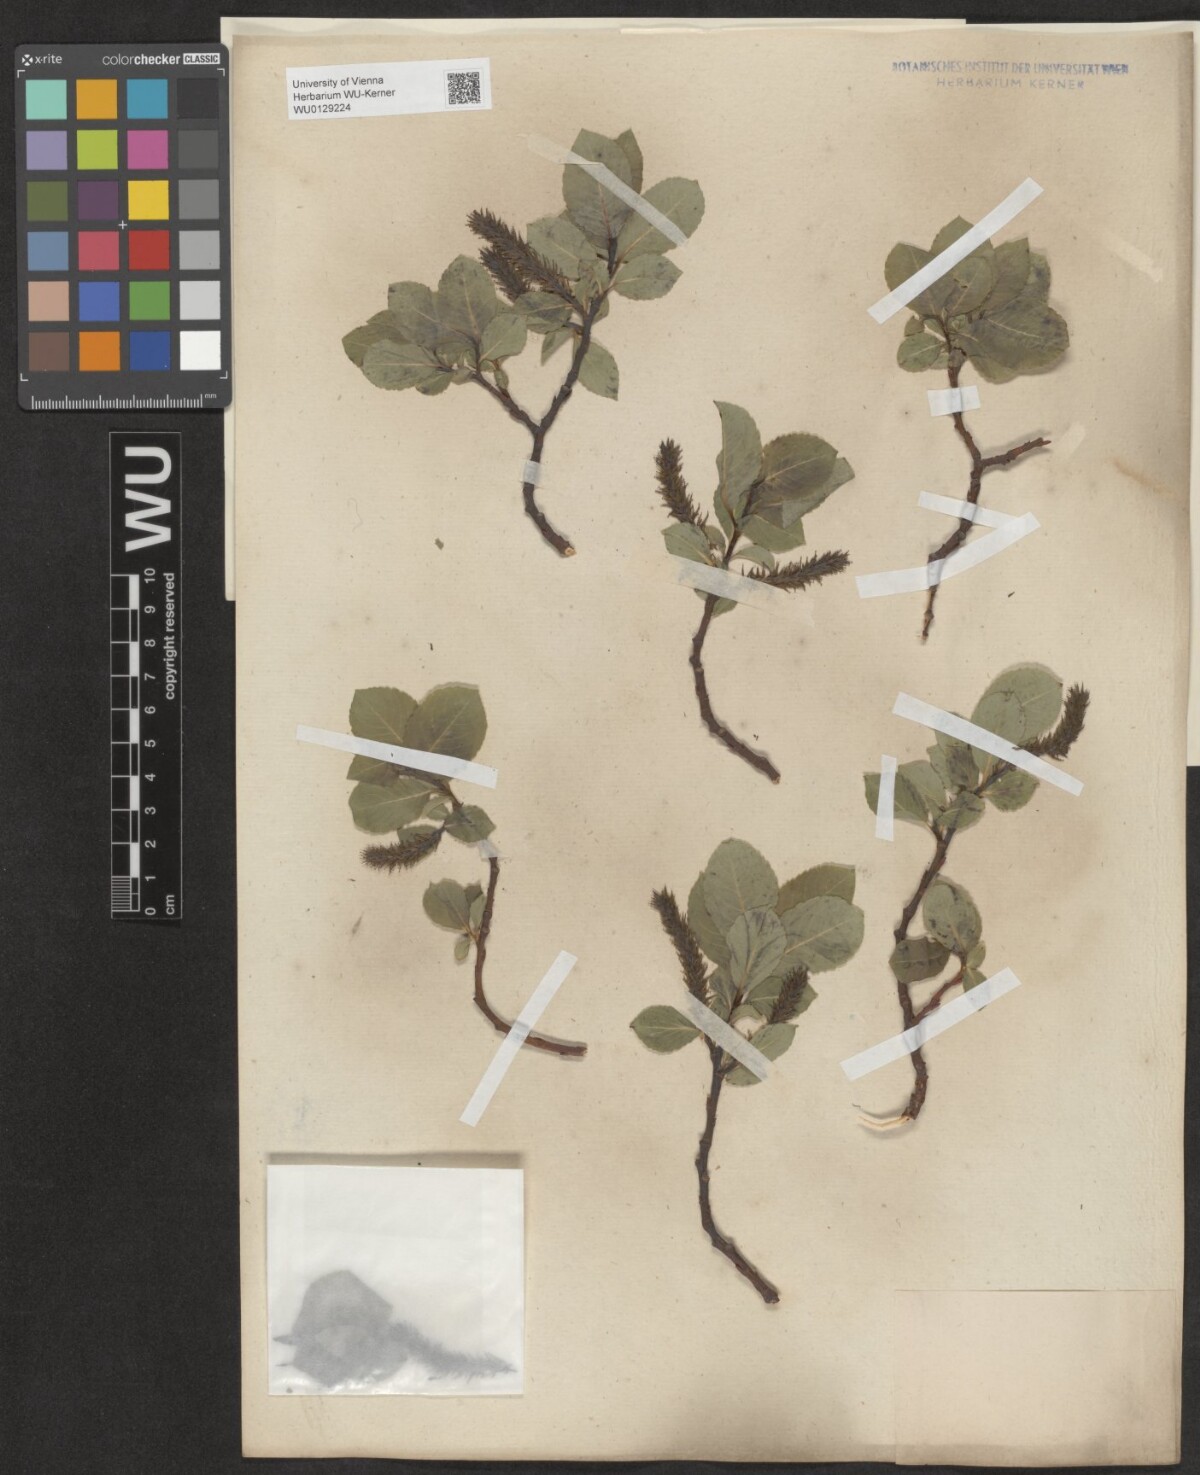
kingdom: Plantae
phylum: Tracheophyta
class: Magnoliopsida
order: Malpighiales
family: Salicaceae
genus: Salix
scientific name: Salix glabra
